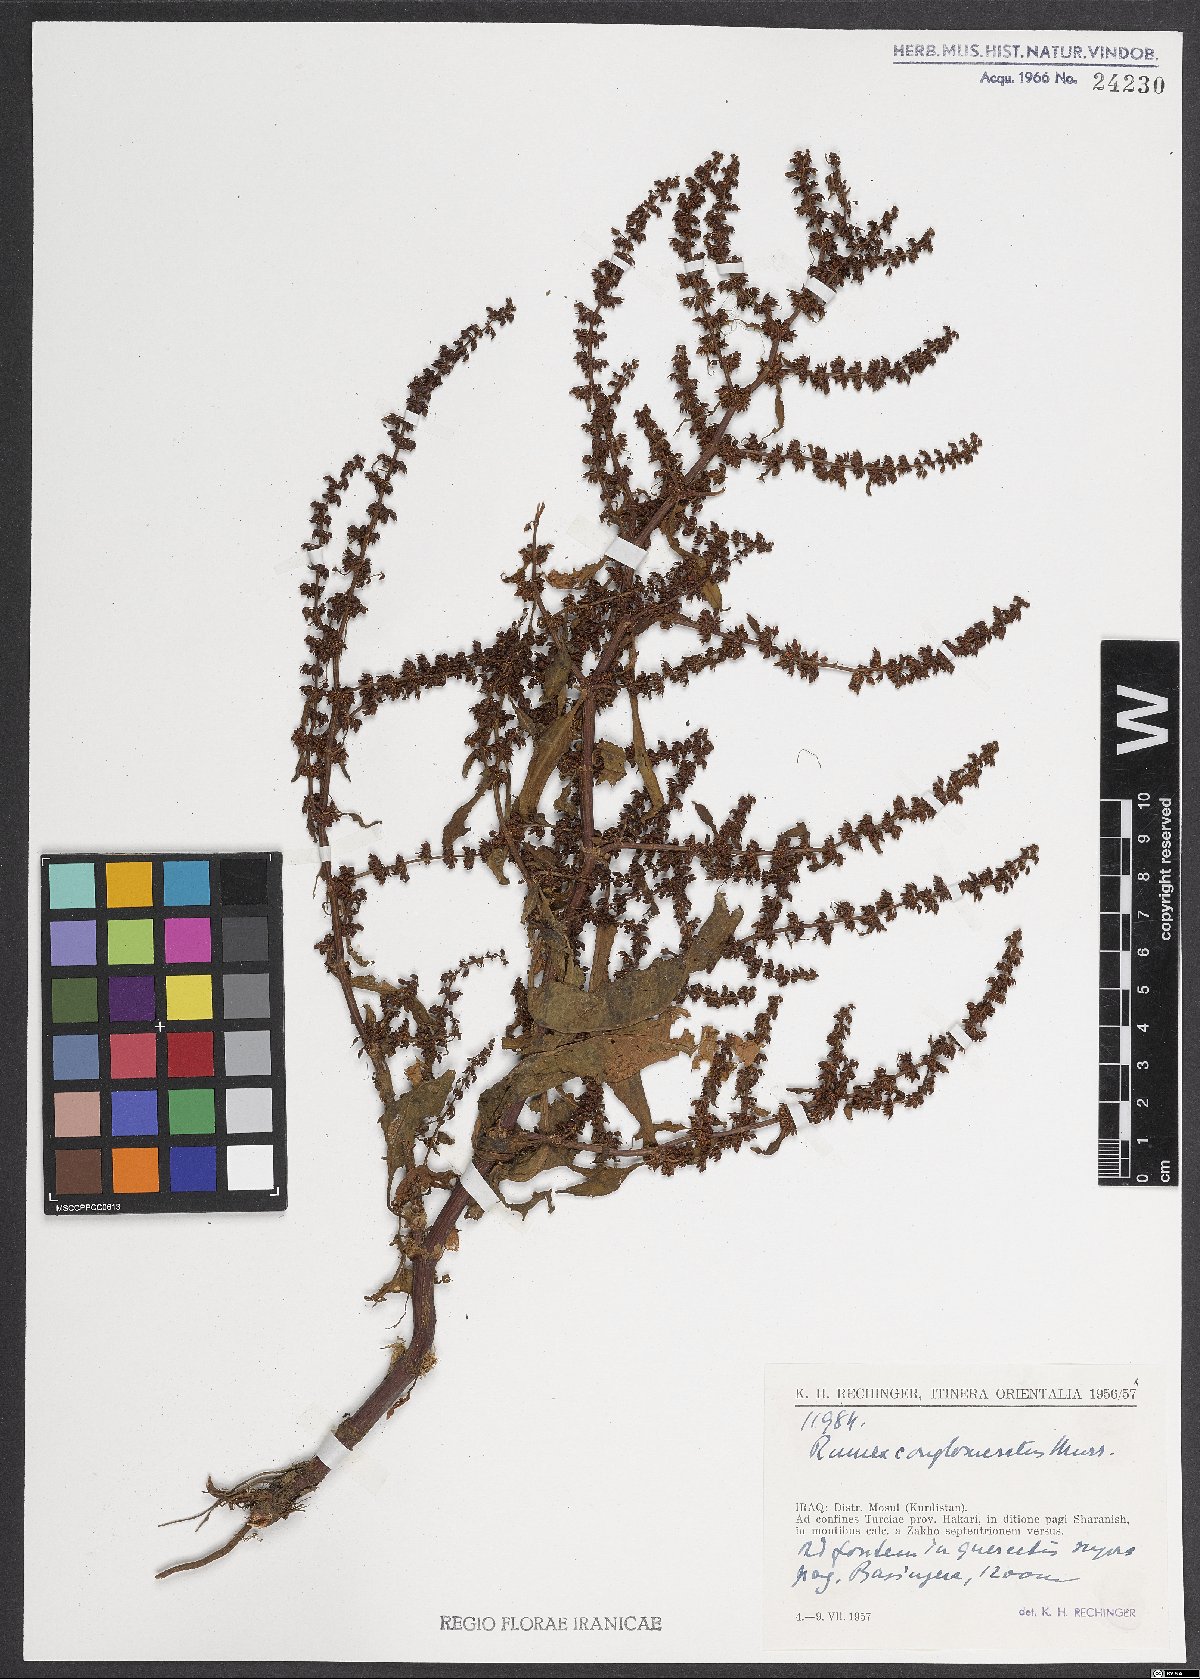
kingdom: Plantae
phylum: Tracheophyta
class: Magnoliopsida
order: Caryophyllales
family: Polygonaceae
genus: Rumex
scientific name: Rumex conglomeratus
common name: Clustered dock
